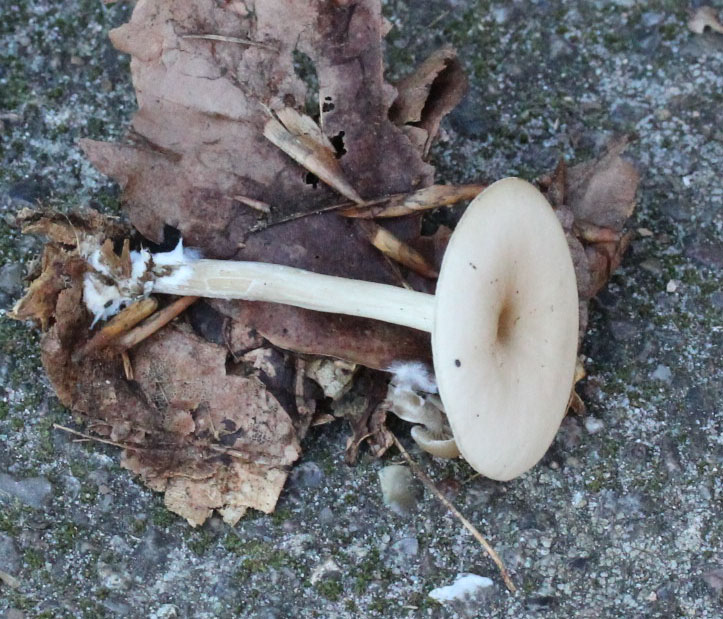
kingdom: Fungi
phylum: Basidiomycota
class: Agaricomycetes
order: Agaricales
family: Tricholomataceae
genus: Clitocybe
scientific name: Clitocybe metachroa
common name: grå tragthat
